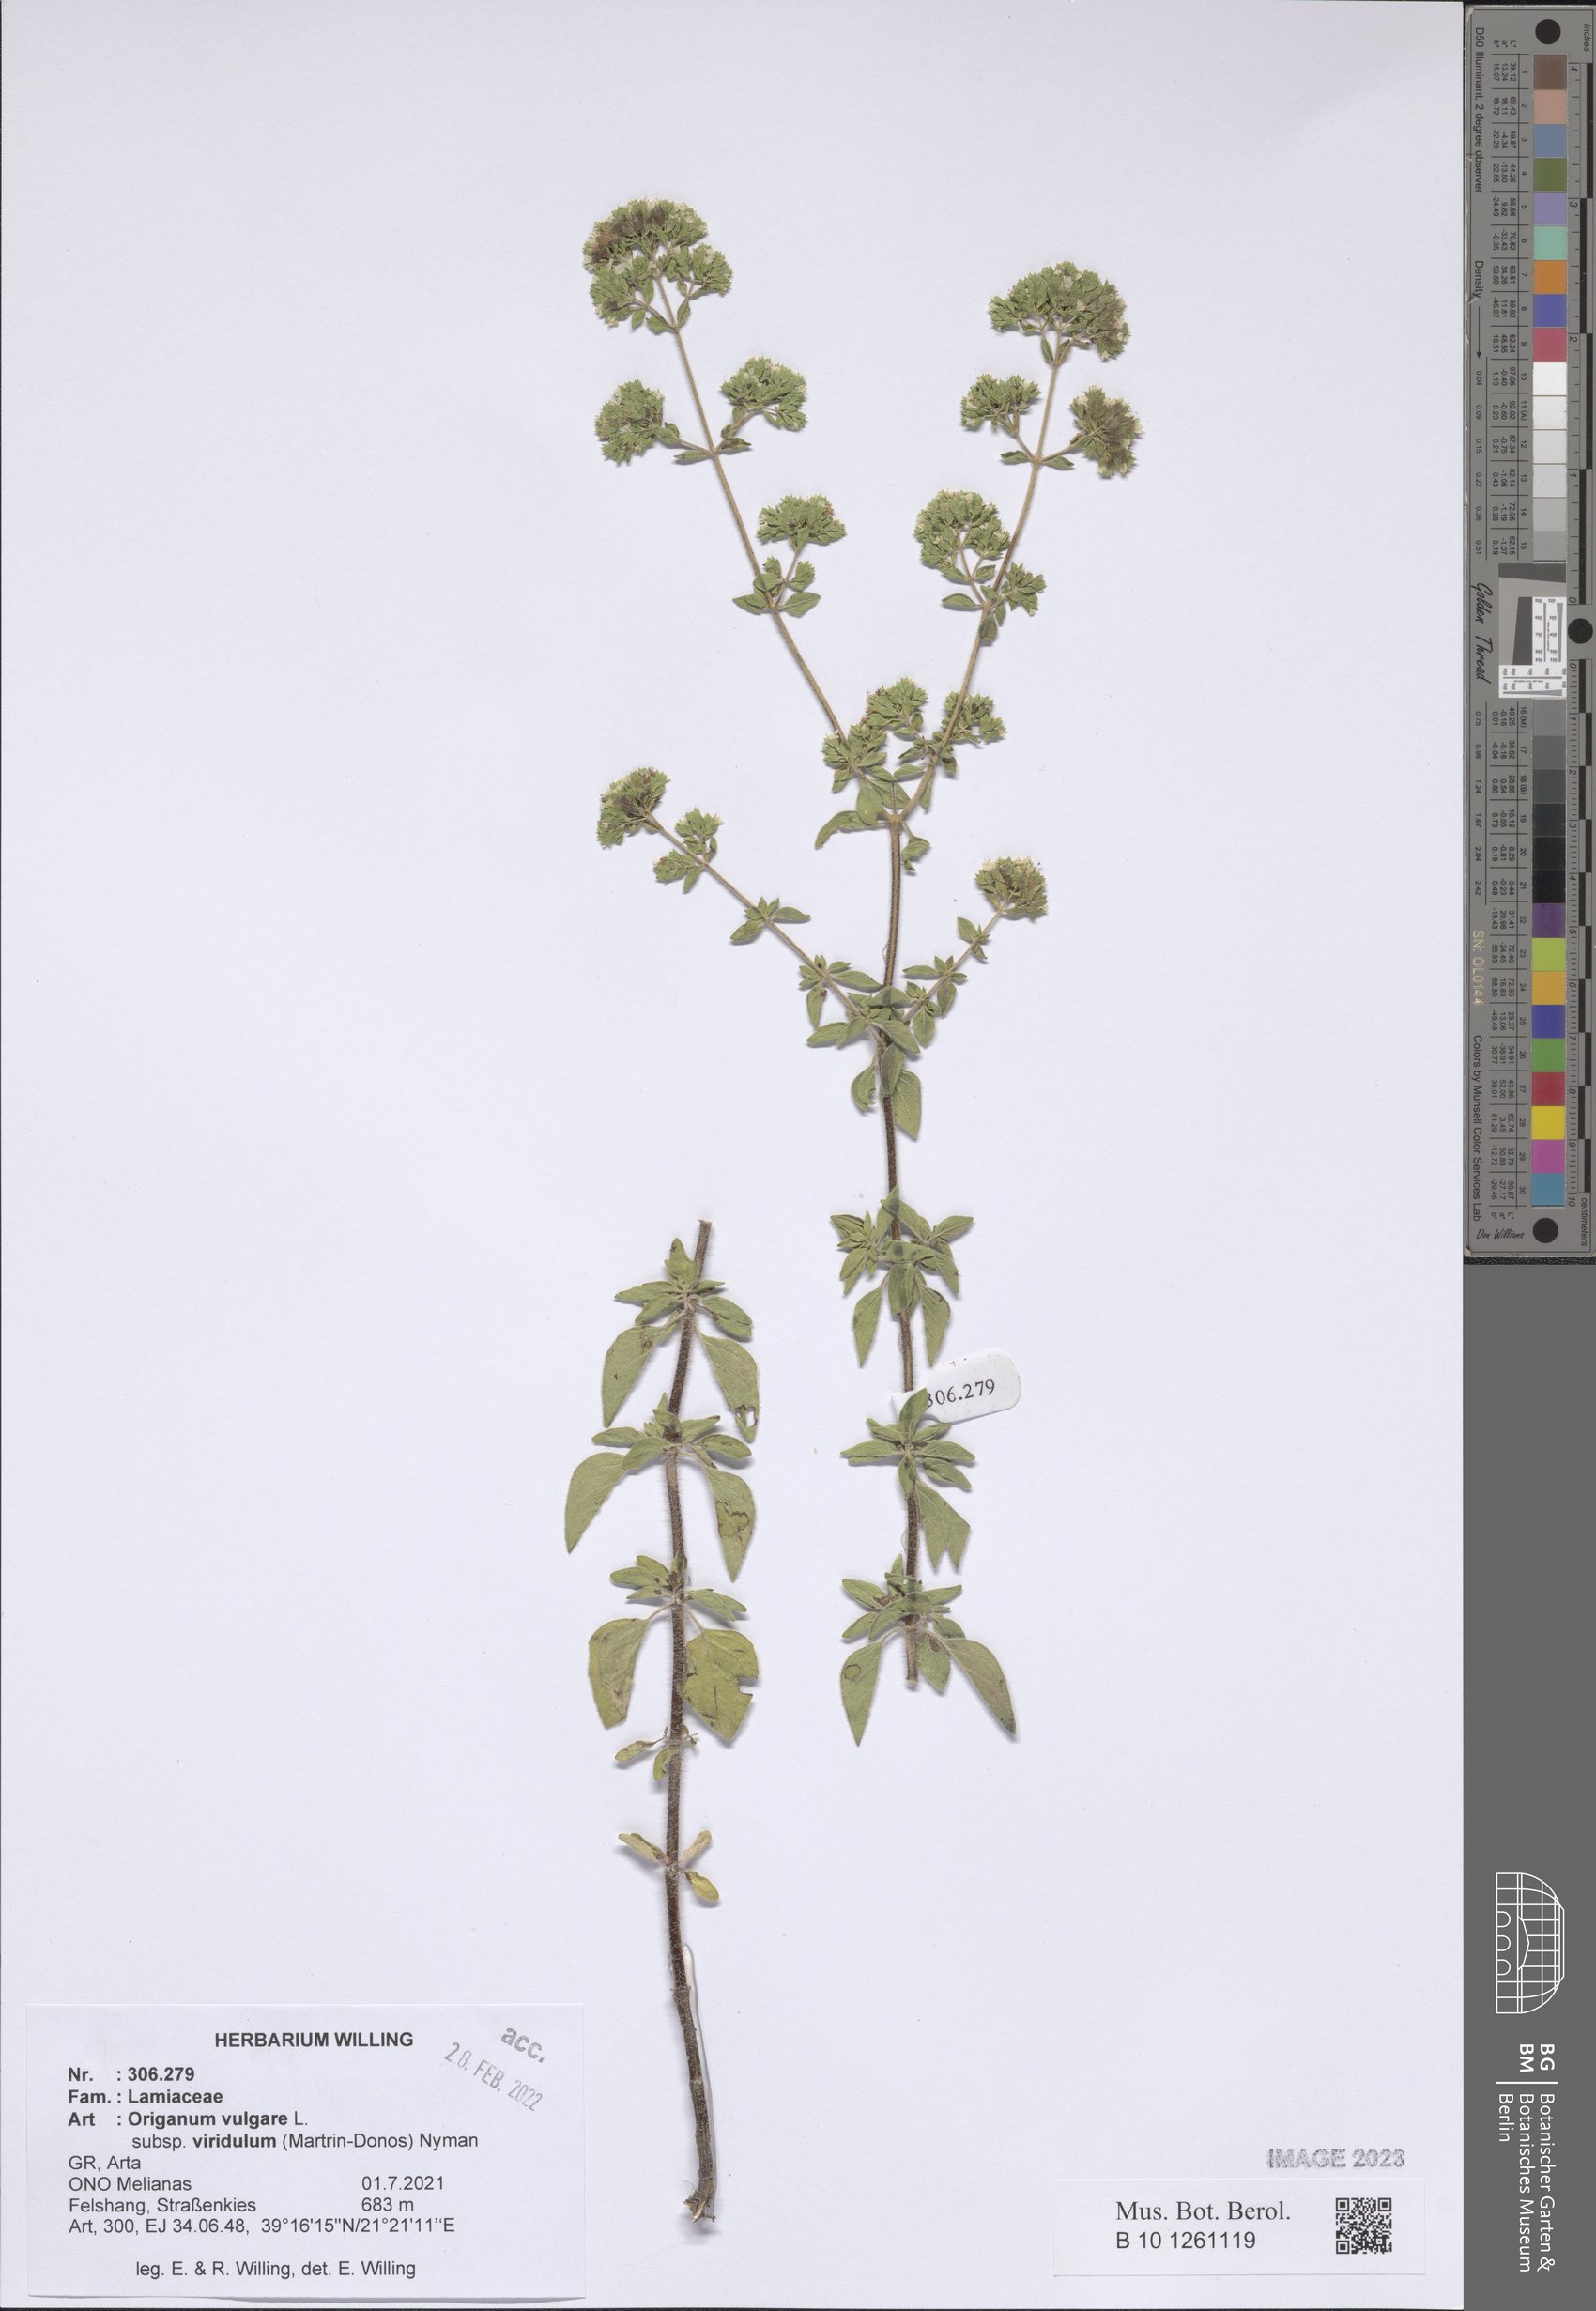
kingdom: Plantae
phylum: Tracheophyta
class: Magnoliopsida
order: Lamiales
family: Lamiaceae
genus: Origanum
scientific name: Origanum vulgare
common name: Wild marjoram
